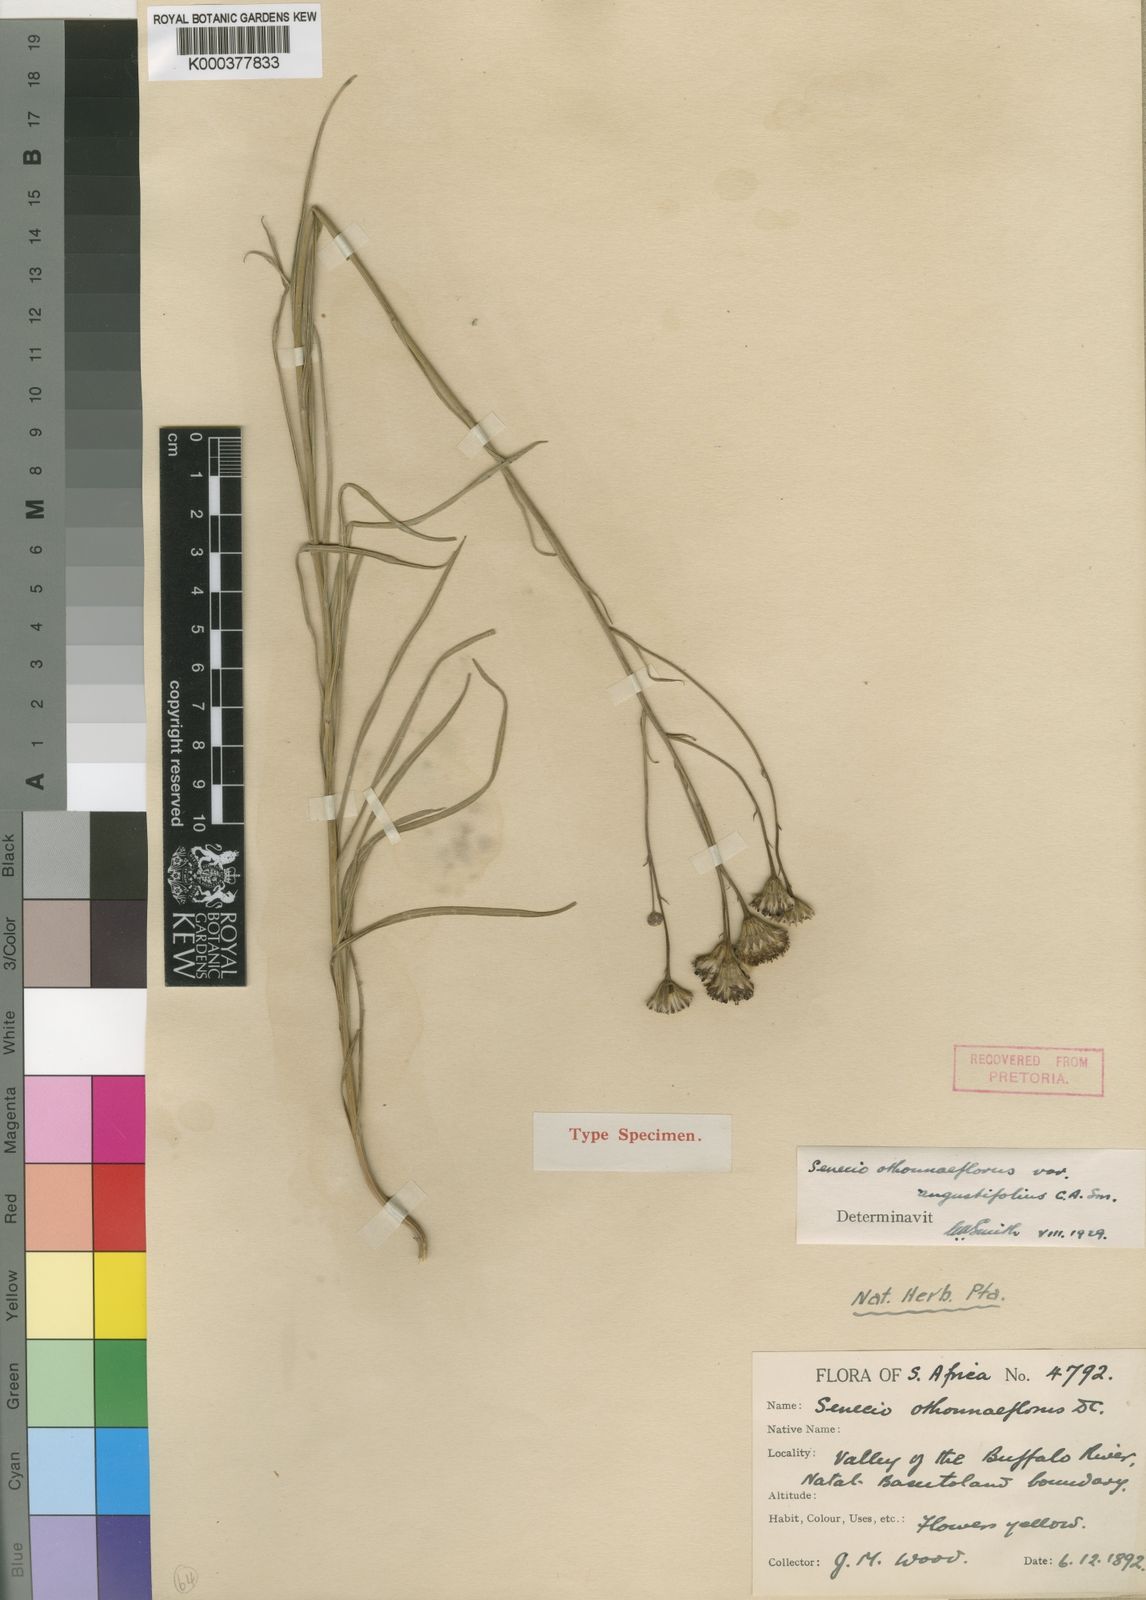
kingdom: Plantae
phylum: Tracheophyta
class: Magnoliopsida
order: Asterales
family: Asteraceae
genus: Senecio
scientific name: Senecio
